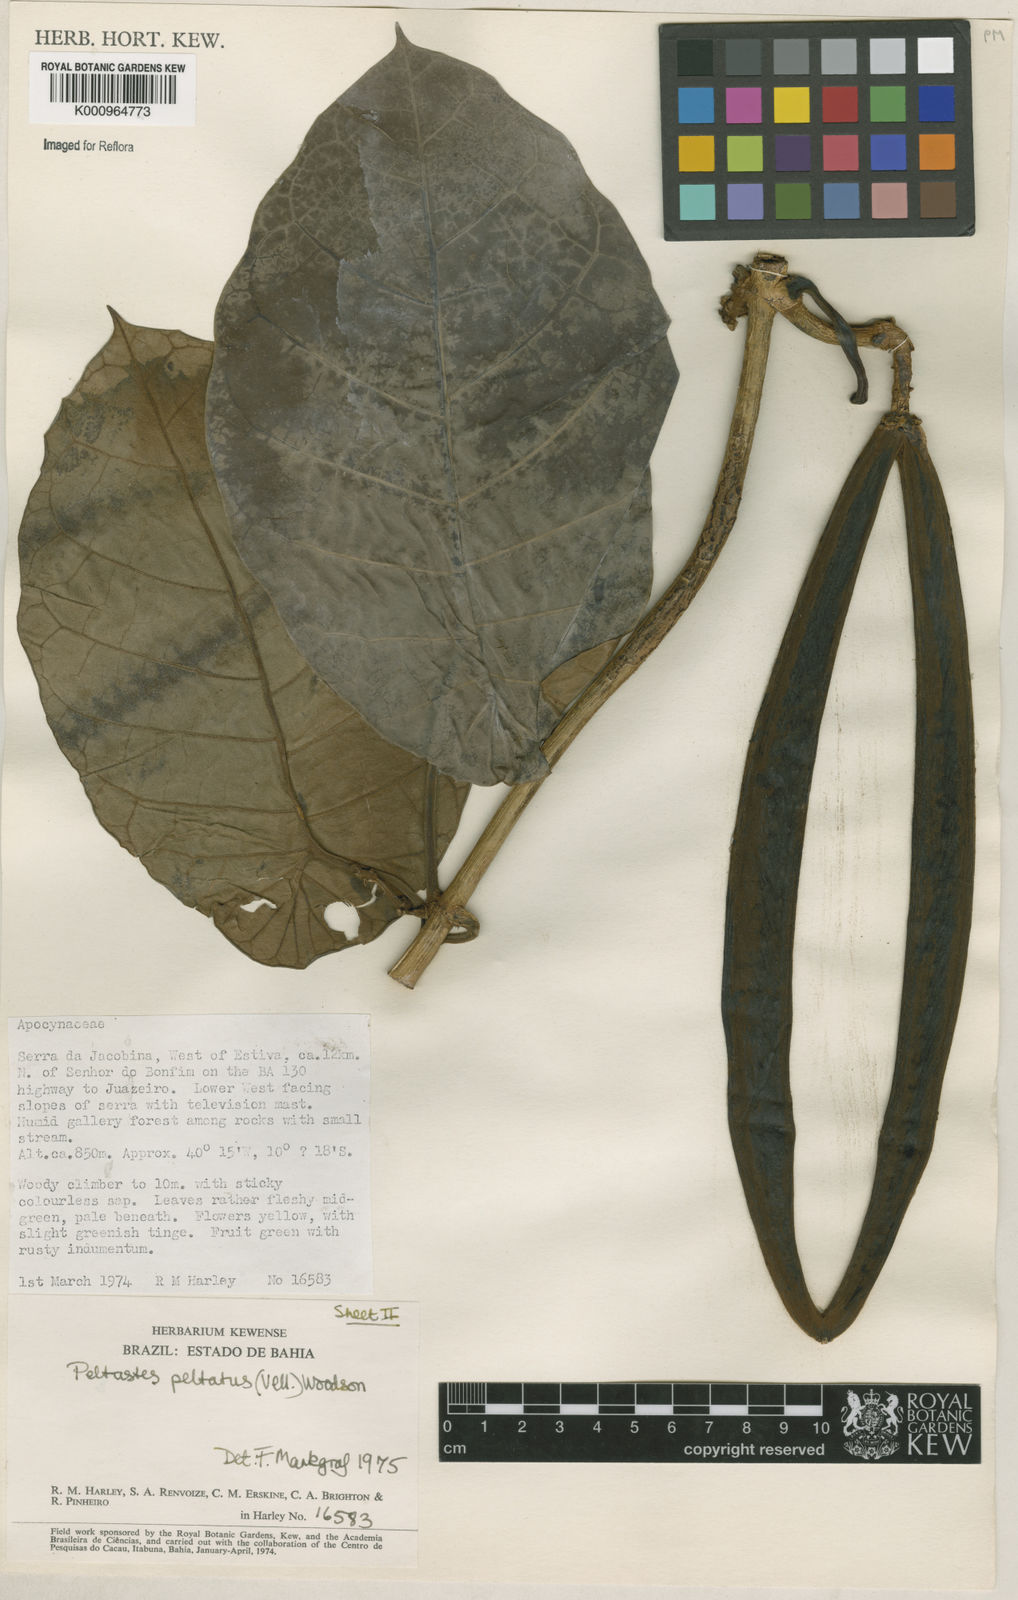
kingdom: Plantae
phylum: Tracheophyta
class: Magnoliopsida
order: Gentianales
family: Apocynaceae
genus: Macropharynx
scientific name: Macropharynx
